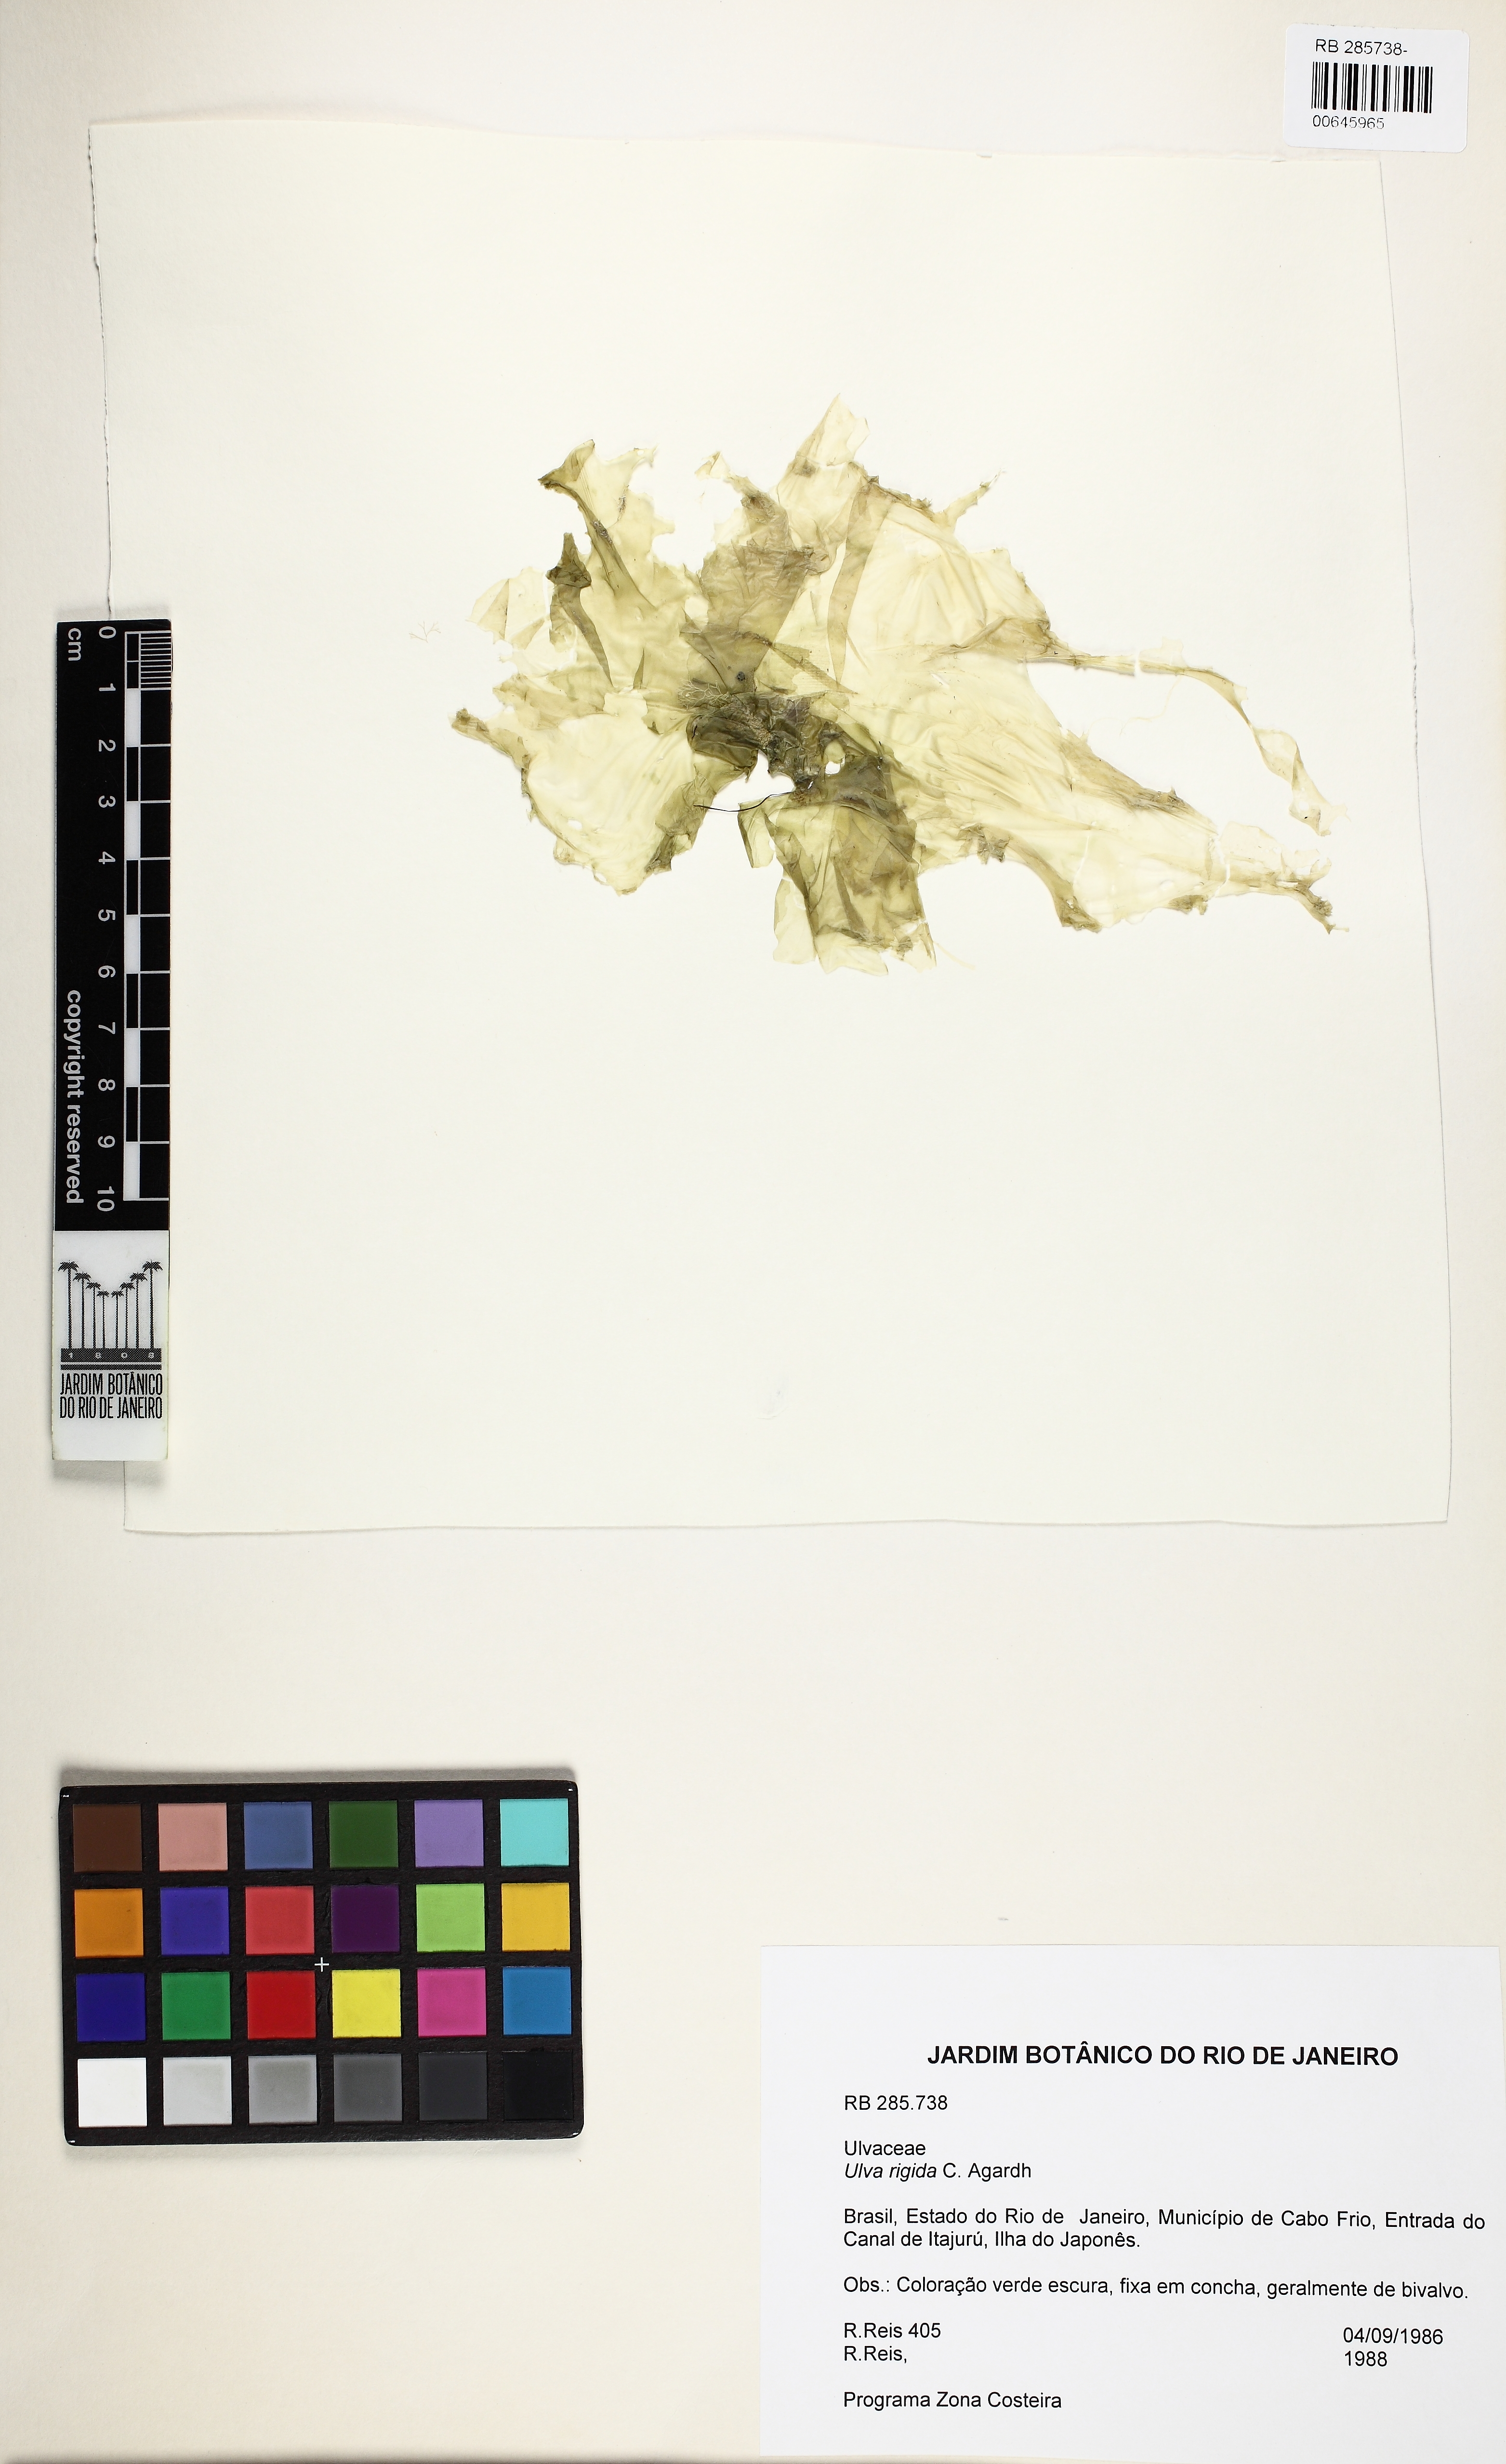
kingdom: Plantae
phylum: Chlorophyta
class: Ulvophyceae
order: Ulvales
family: Ulvaceae
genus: Ulva
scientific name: Ulva rigida
